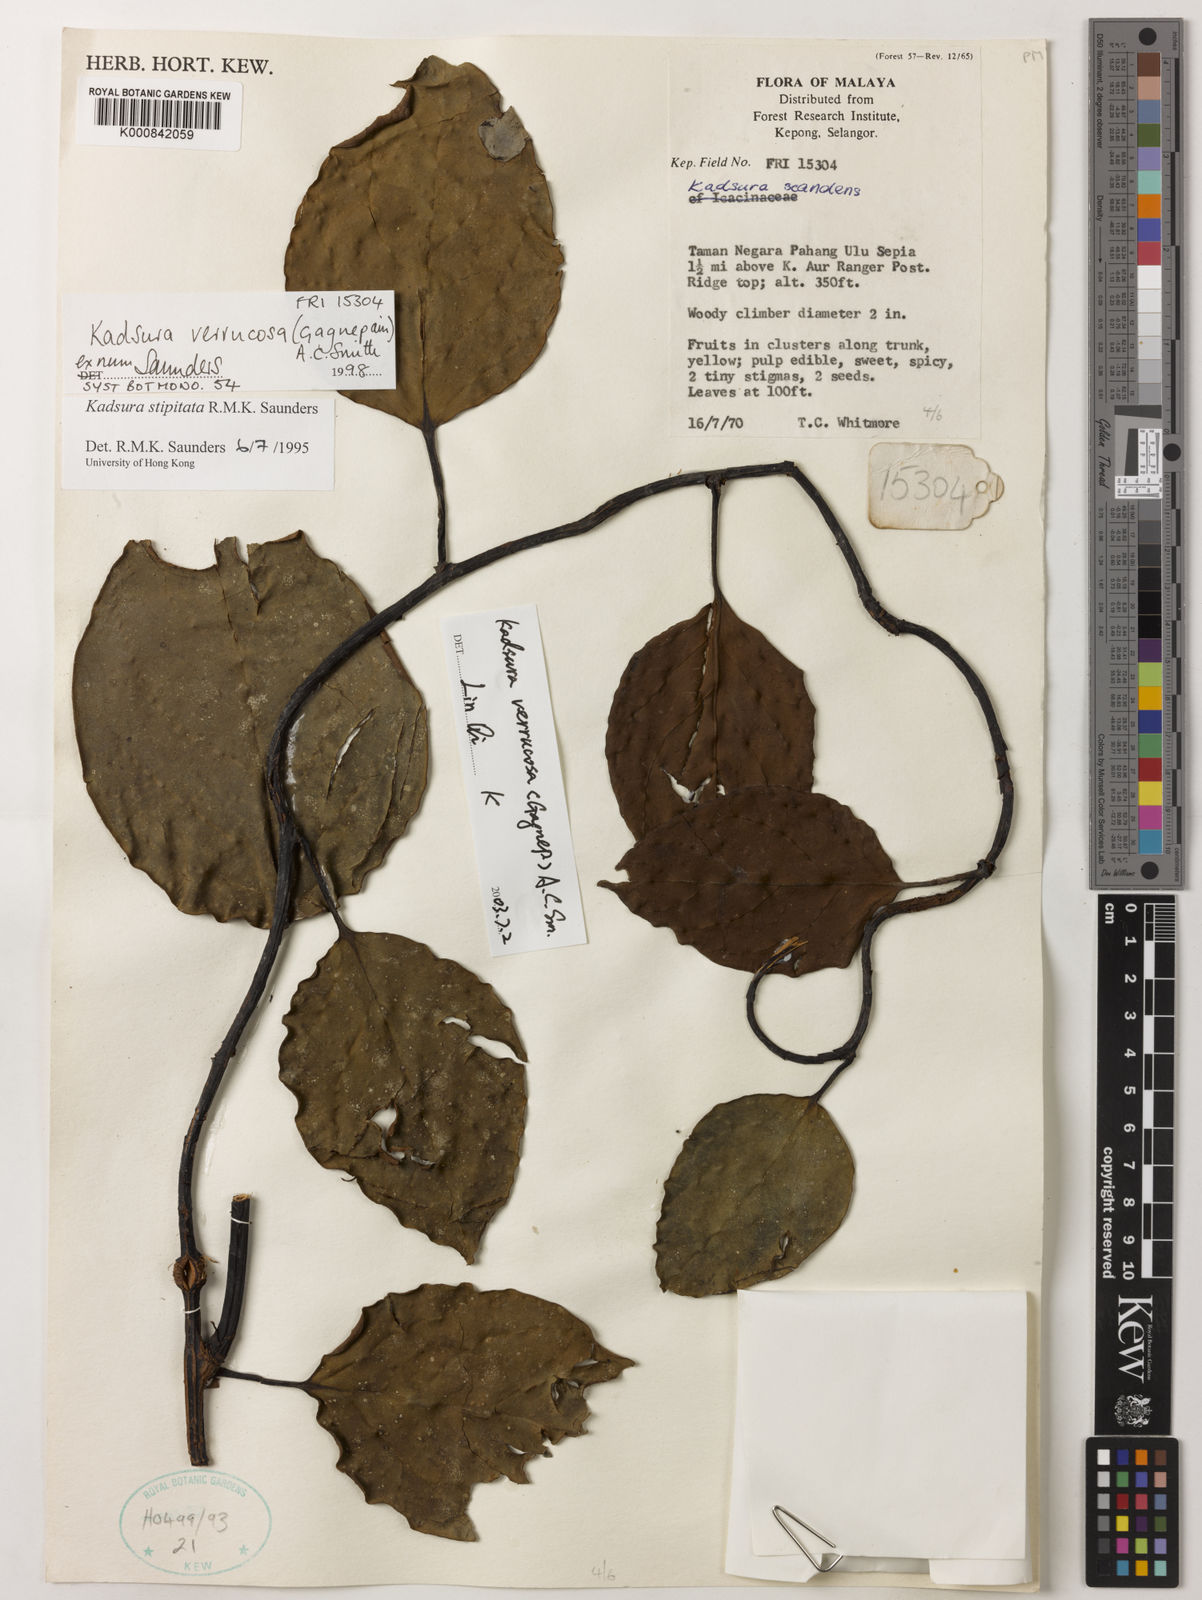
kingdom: Plantae
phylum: Tracheophyta
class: Magnoliopsida
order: Austrobaileyales
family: Schisandraceae
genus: Kadsura
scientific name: Kadsura verrucosa
